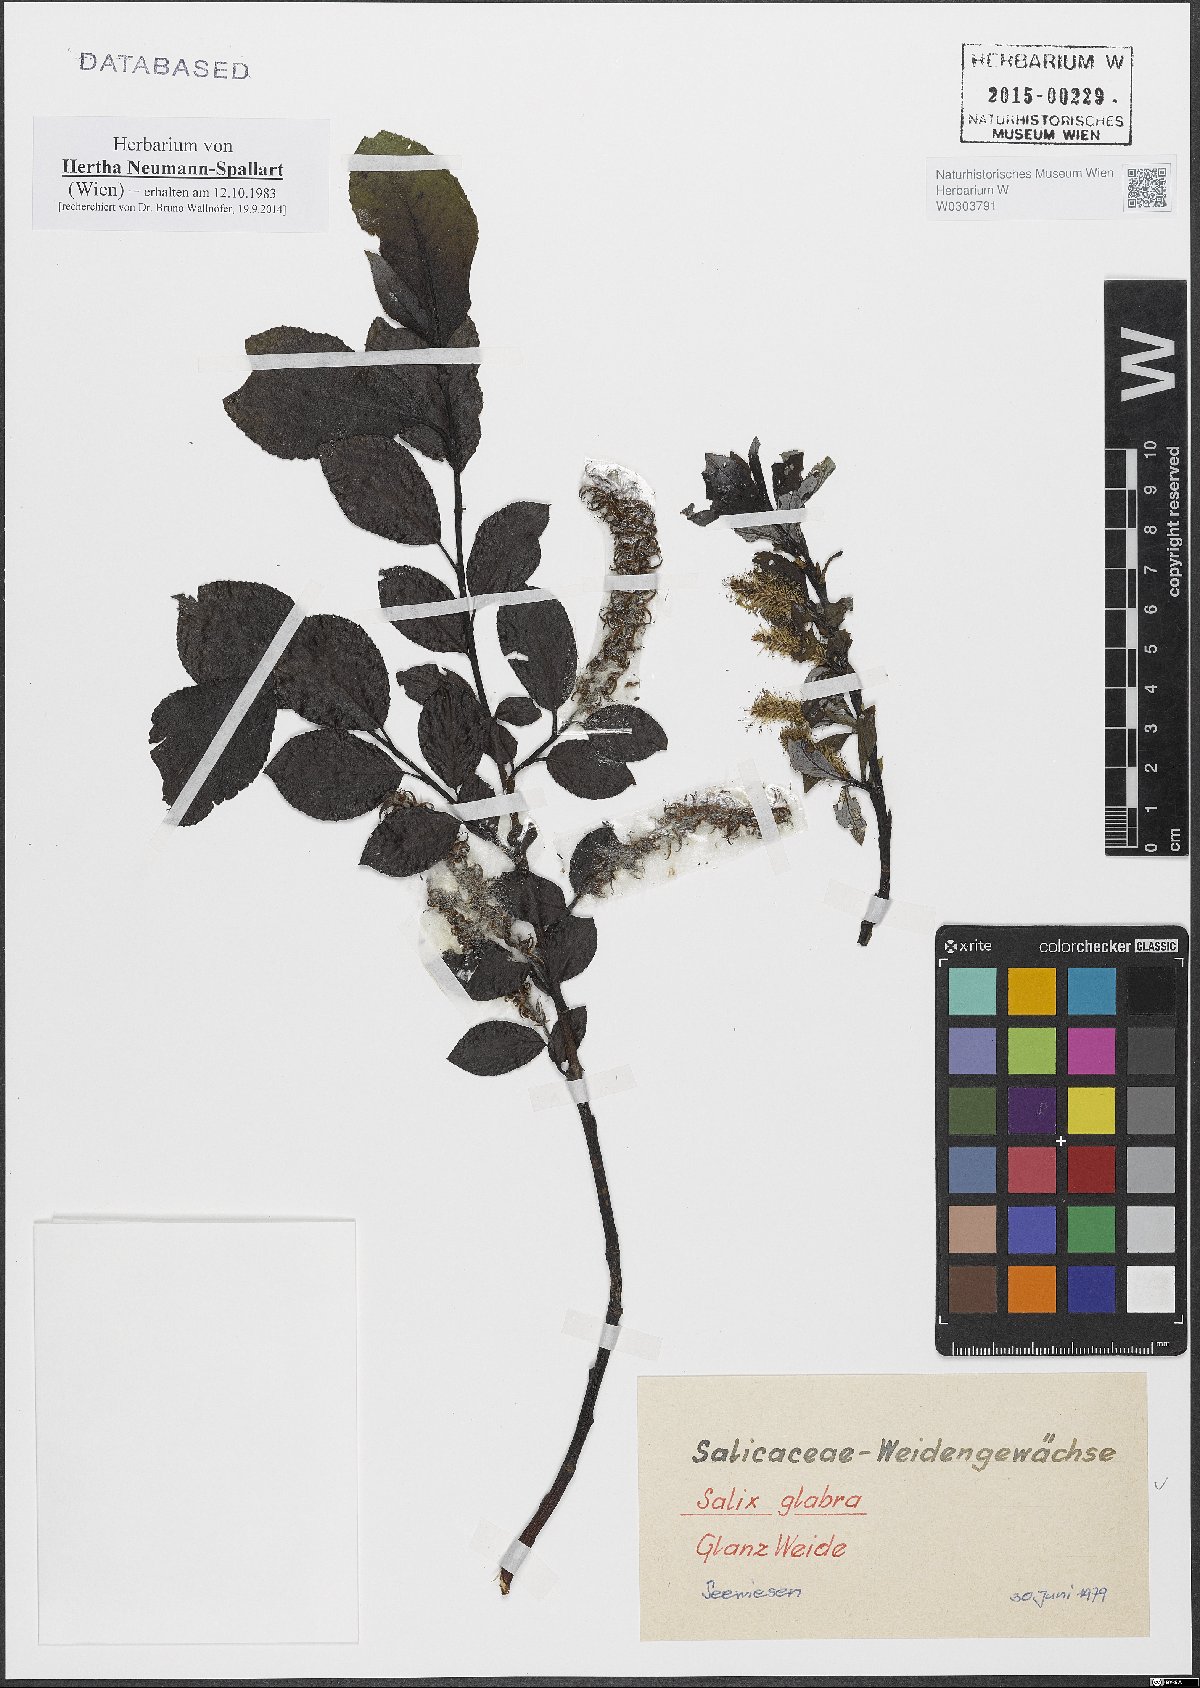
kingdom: Plantae
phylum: Tracheophyta
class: Magnoliopsida
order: Malpighiales
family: Salicaceae
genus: Salix
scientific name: Salix glabra
